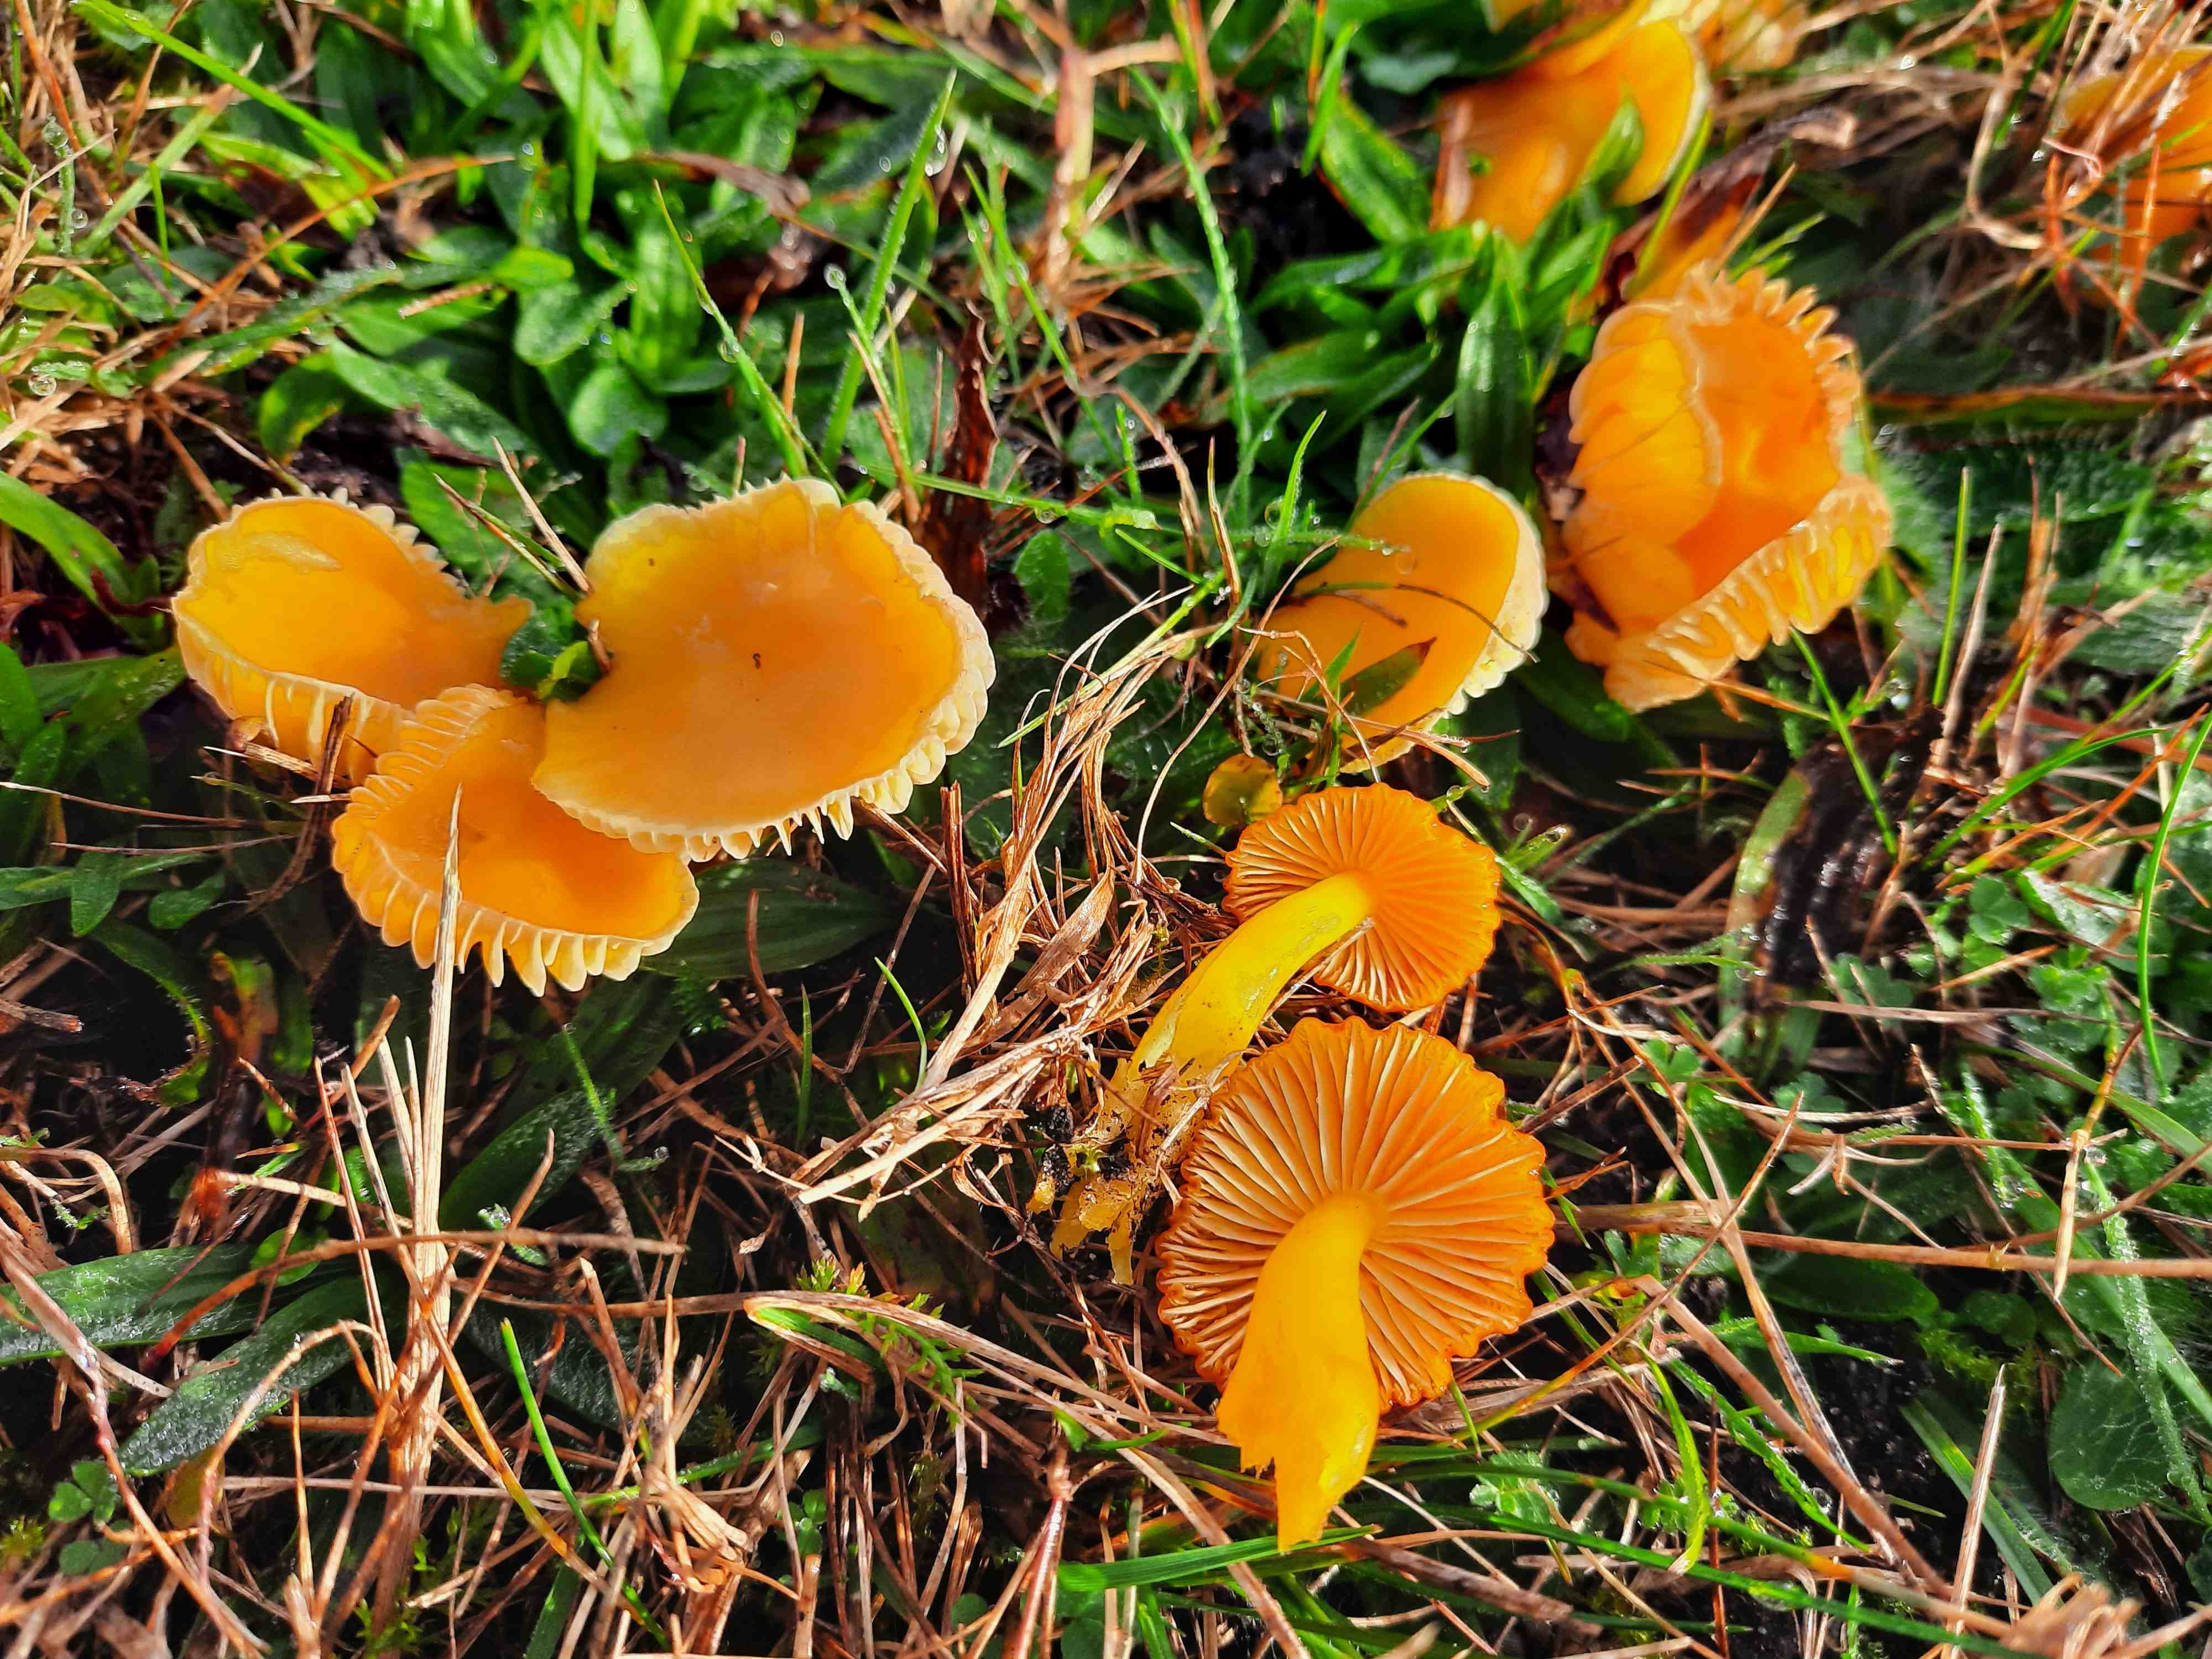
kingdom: Fungi
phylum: Basidiomycota
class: Agaricomycetes
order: Agaricales
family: Hygrophoraceae
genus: Hygrocybe
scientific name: Hygrocybe ceracea
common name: voksgul vokshat
